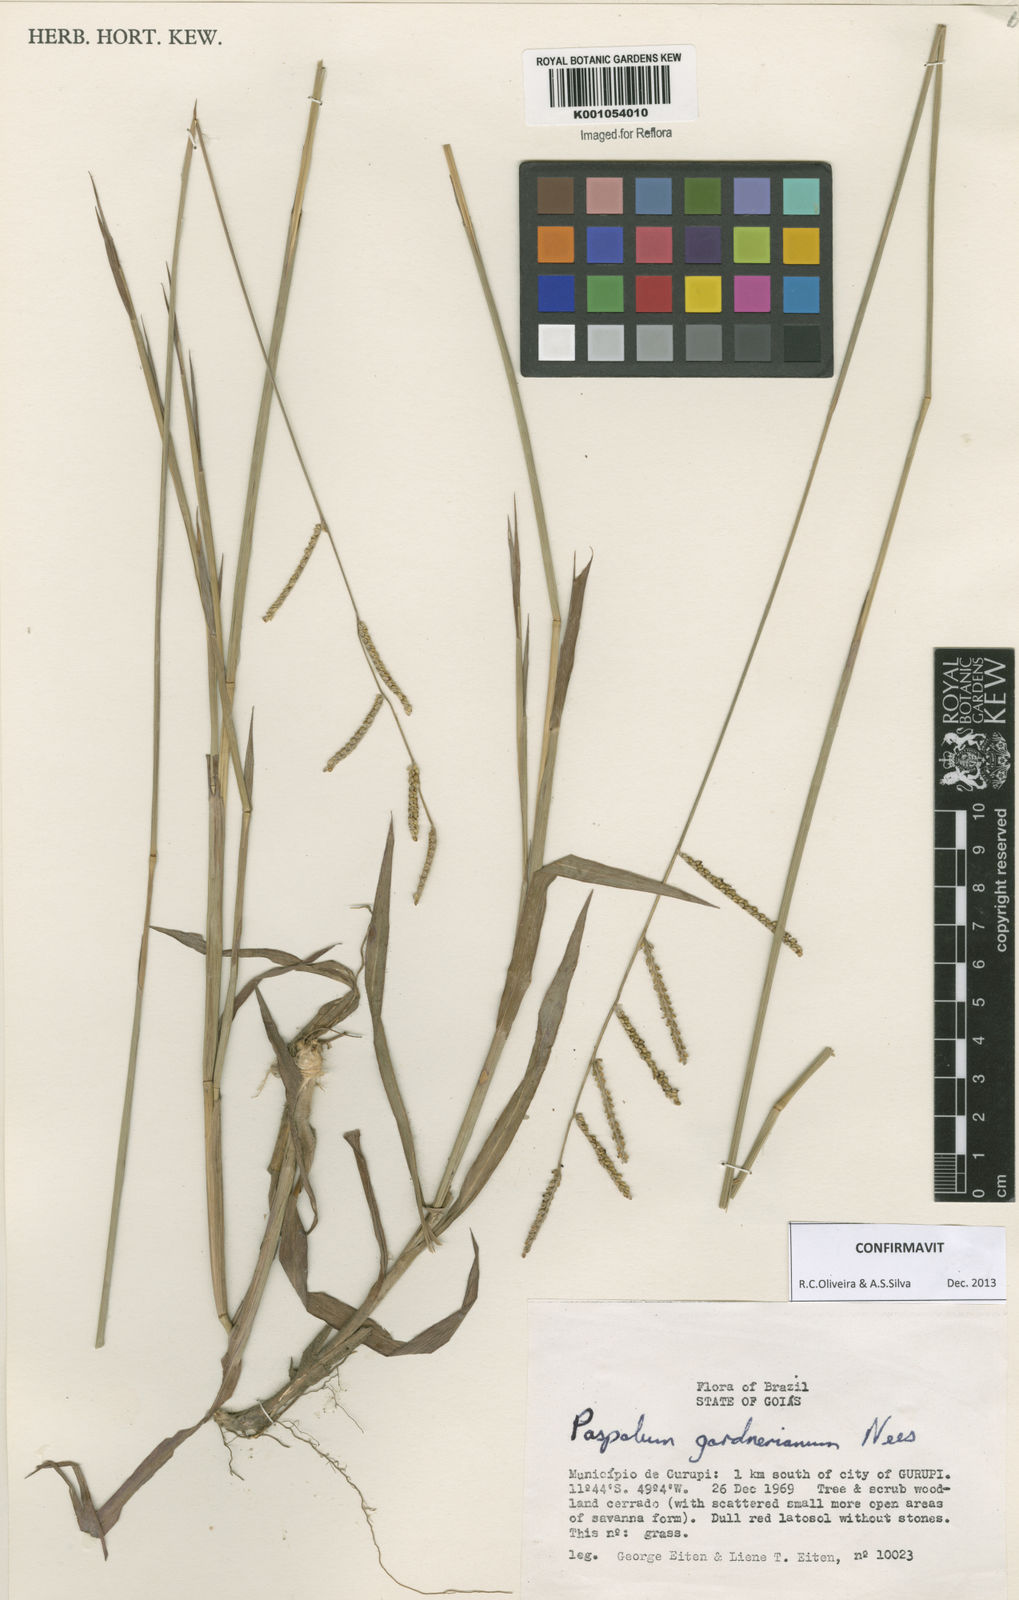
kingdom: Plantae
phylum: Tracheophyta
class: Liliopsida
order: Poales
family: Poaceae
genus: Paspalum
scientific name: Paspalum gardnerianum
